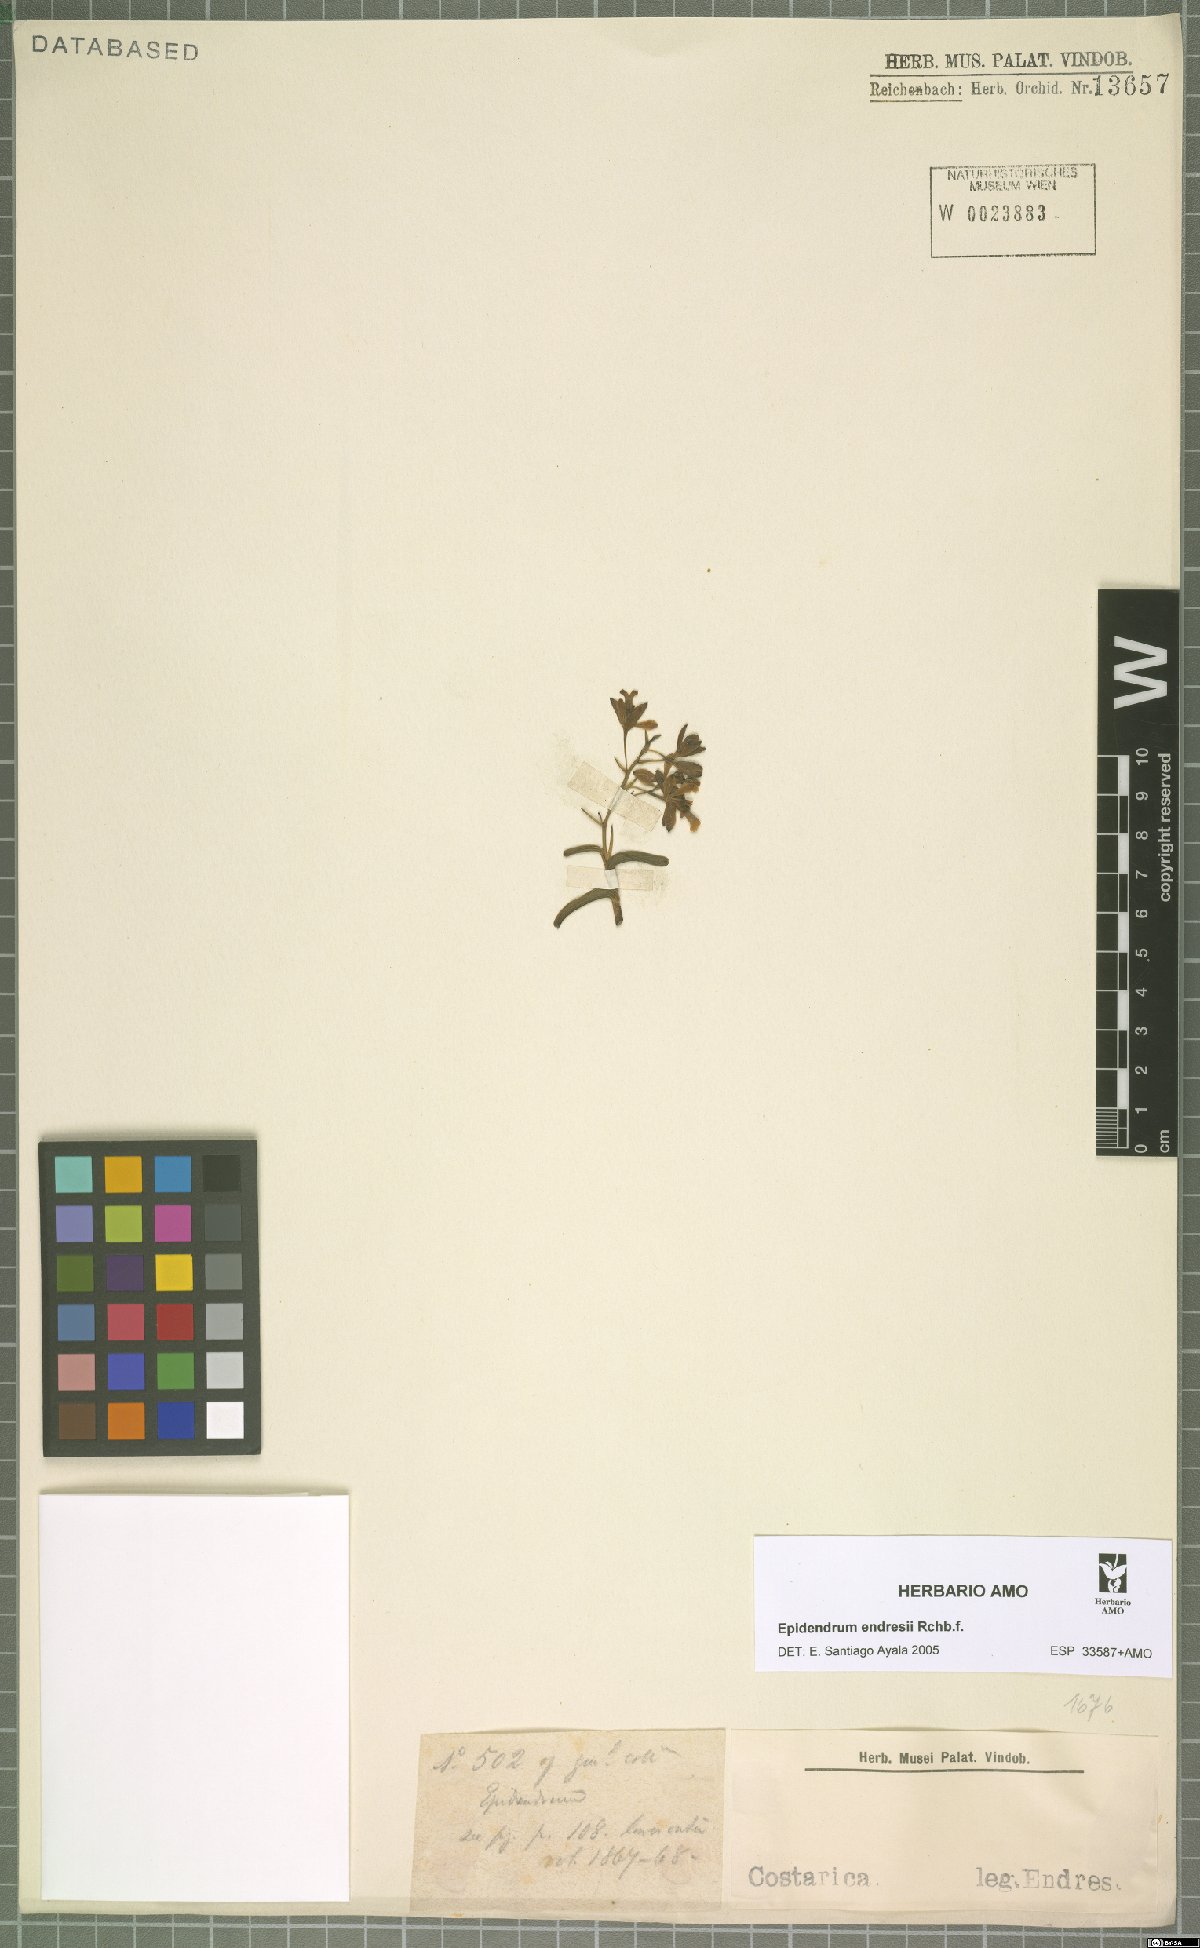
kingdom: Plantae
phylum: Tracheophyta
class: Liliopsida
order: Asparagales
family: Orchidaceae
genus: Epidendrum
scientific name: Epidendrum endresii
